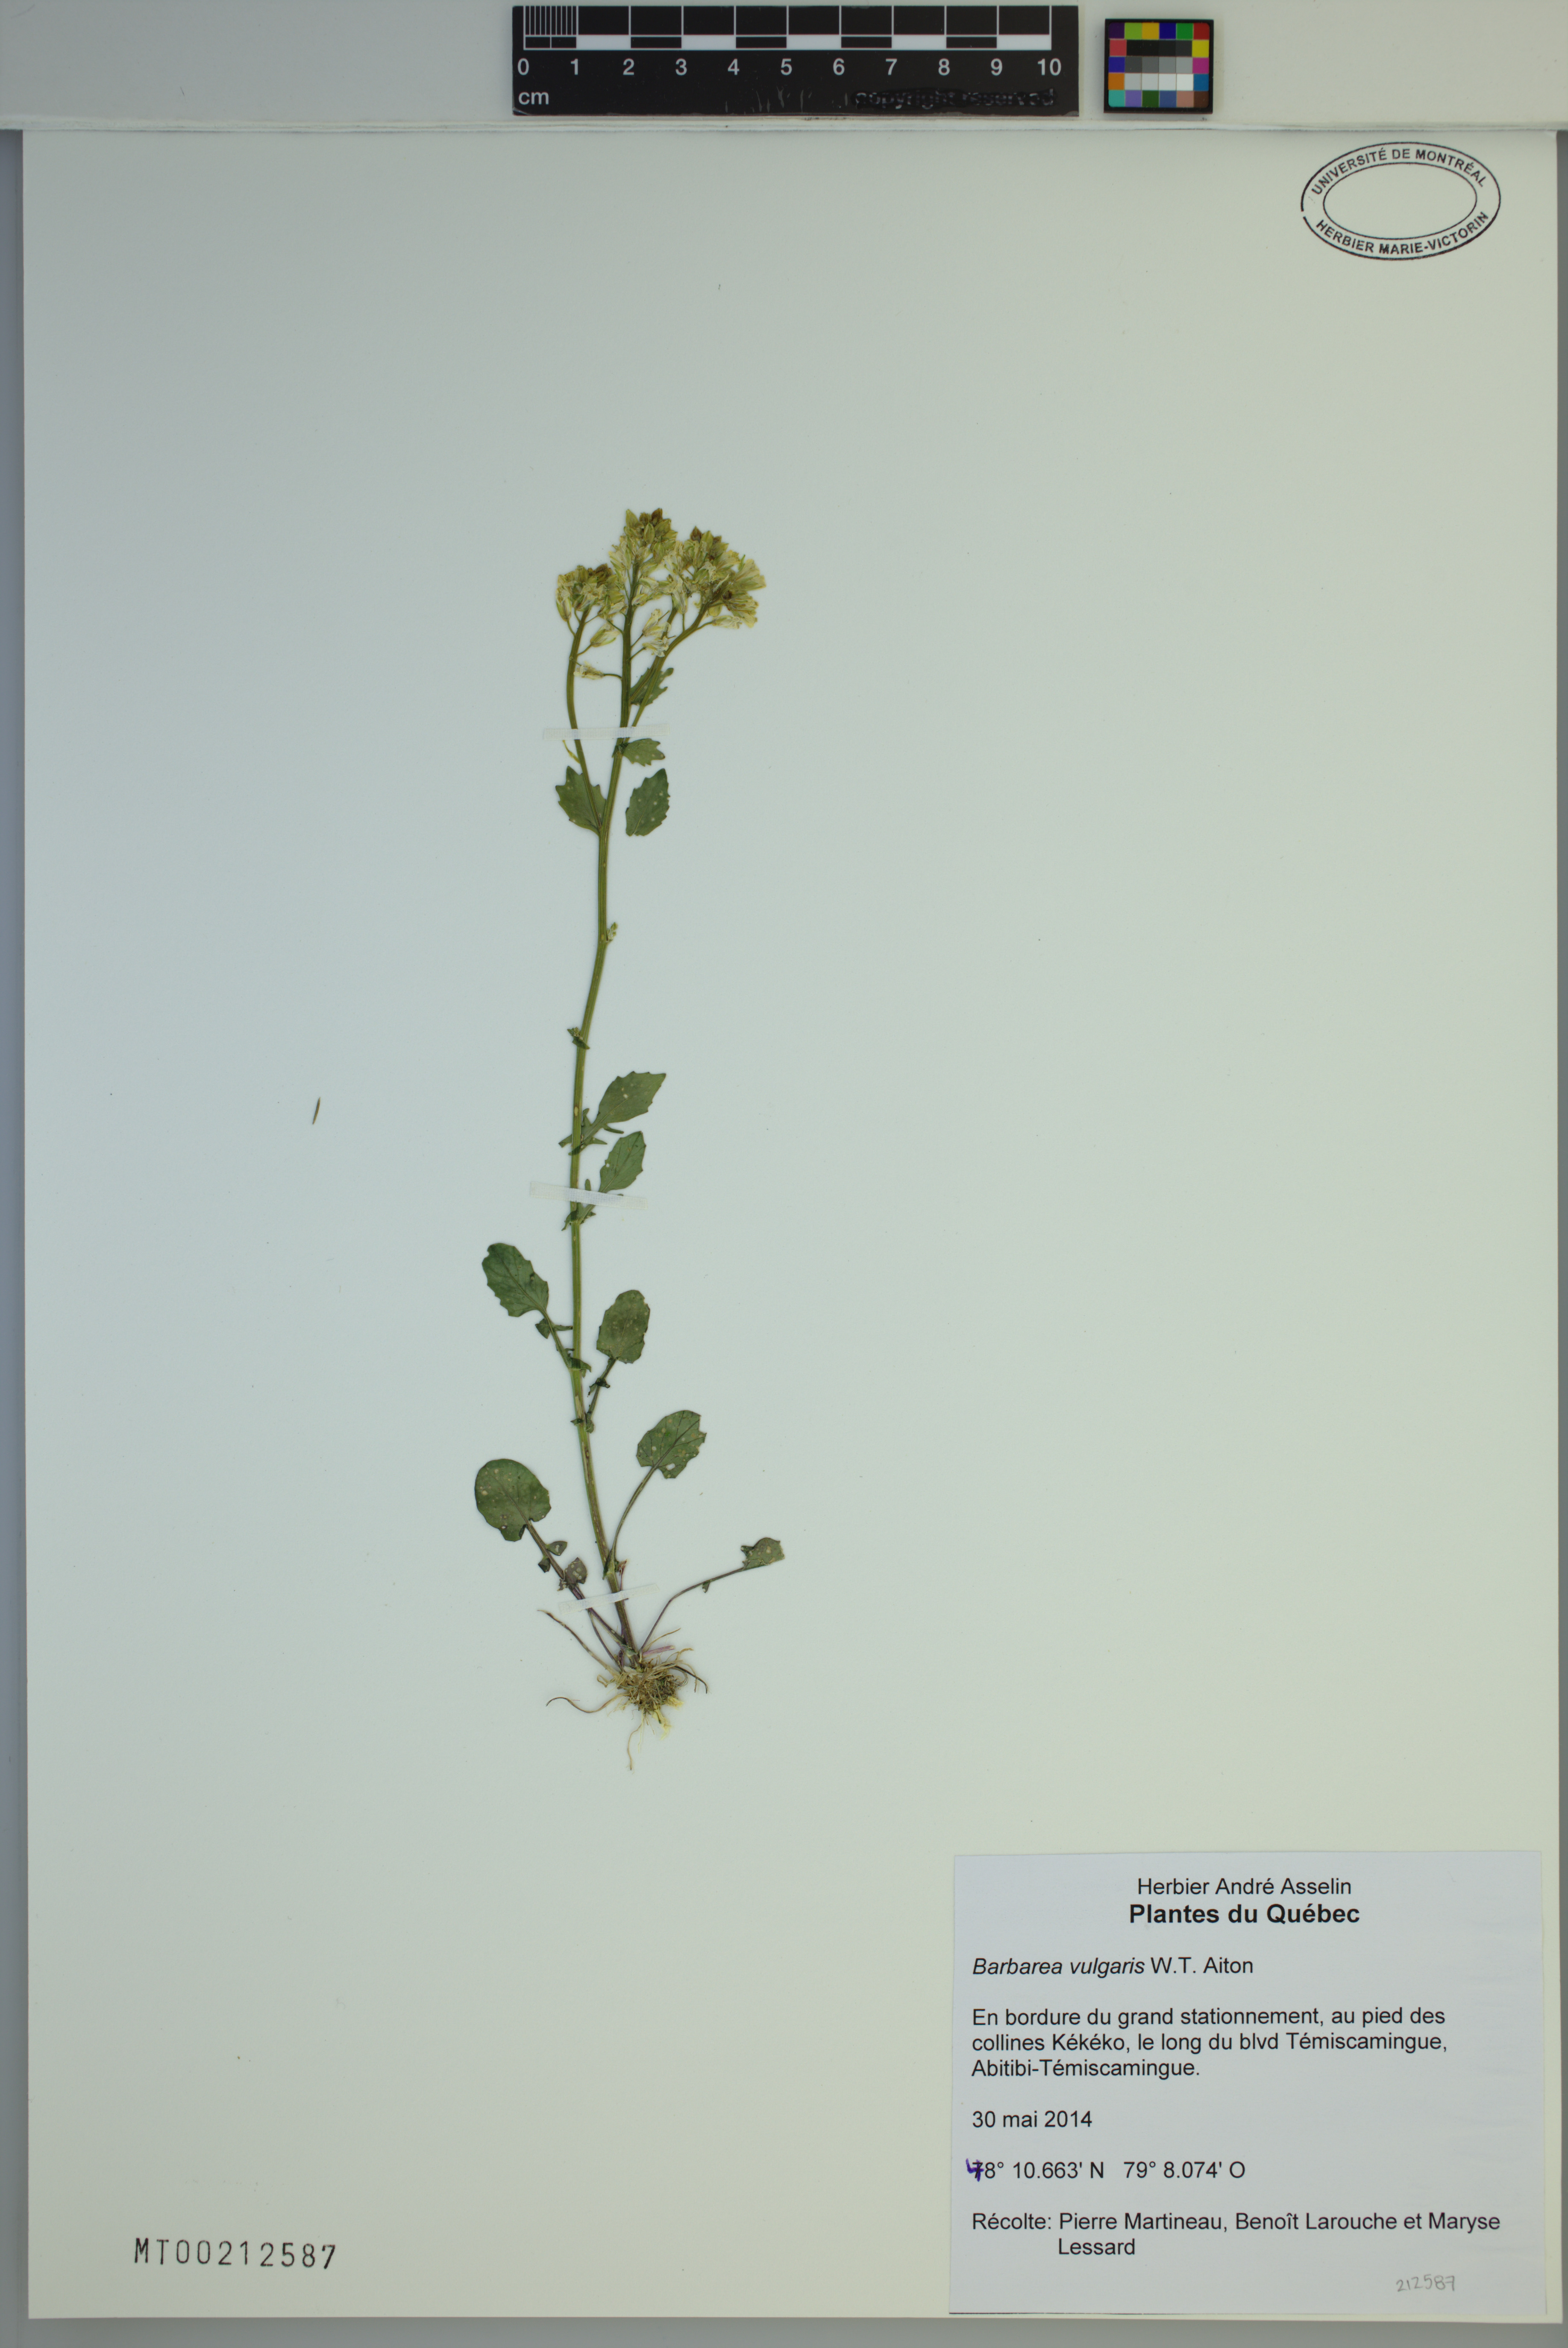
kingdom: Plantae
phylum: Tracheophyta
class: Magnoliopsida
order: Brassicales
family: Brassicaceae
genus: Barbarea
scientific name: Barbarea vulgaris
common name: Cressy-greens
